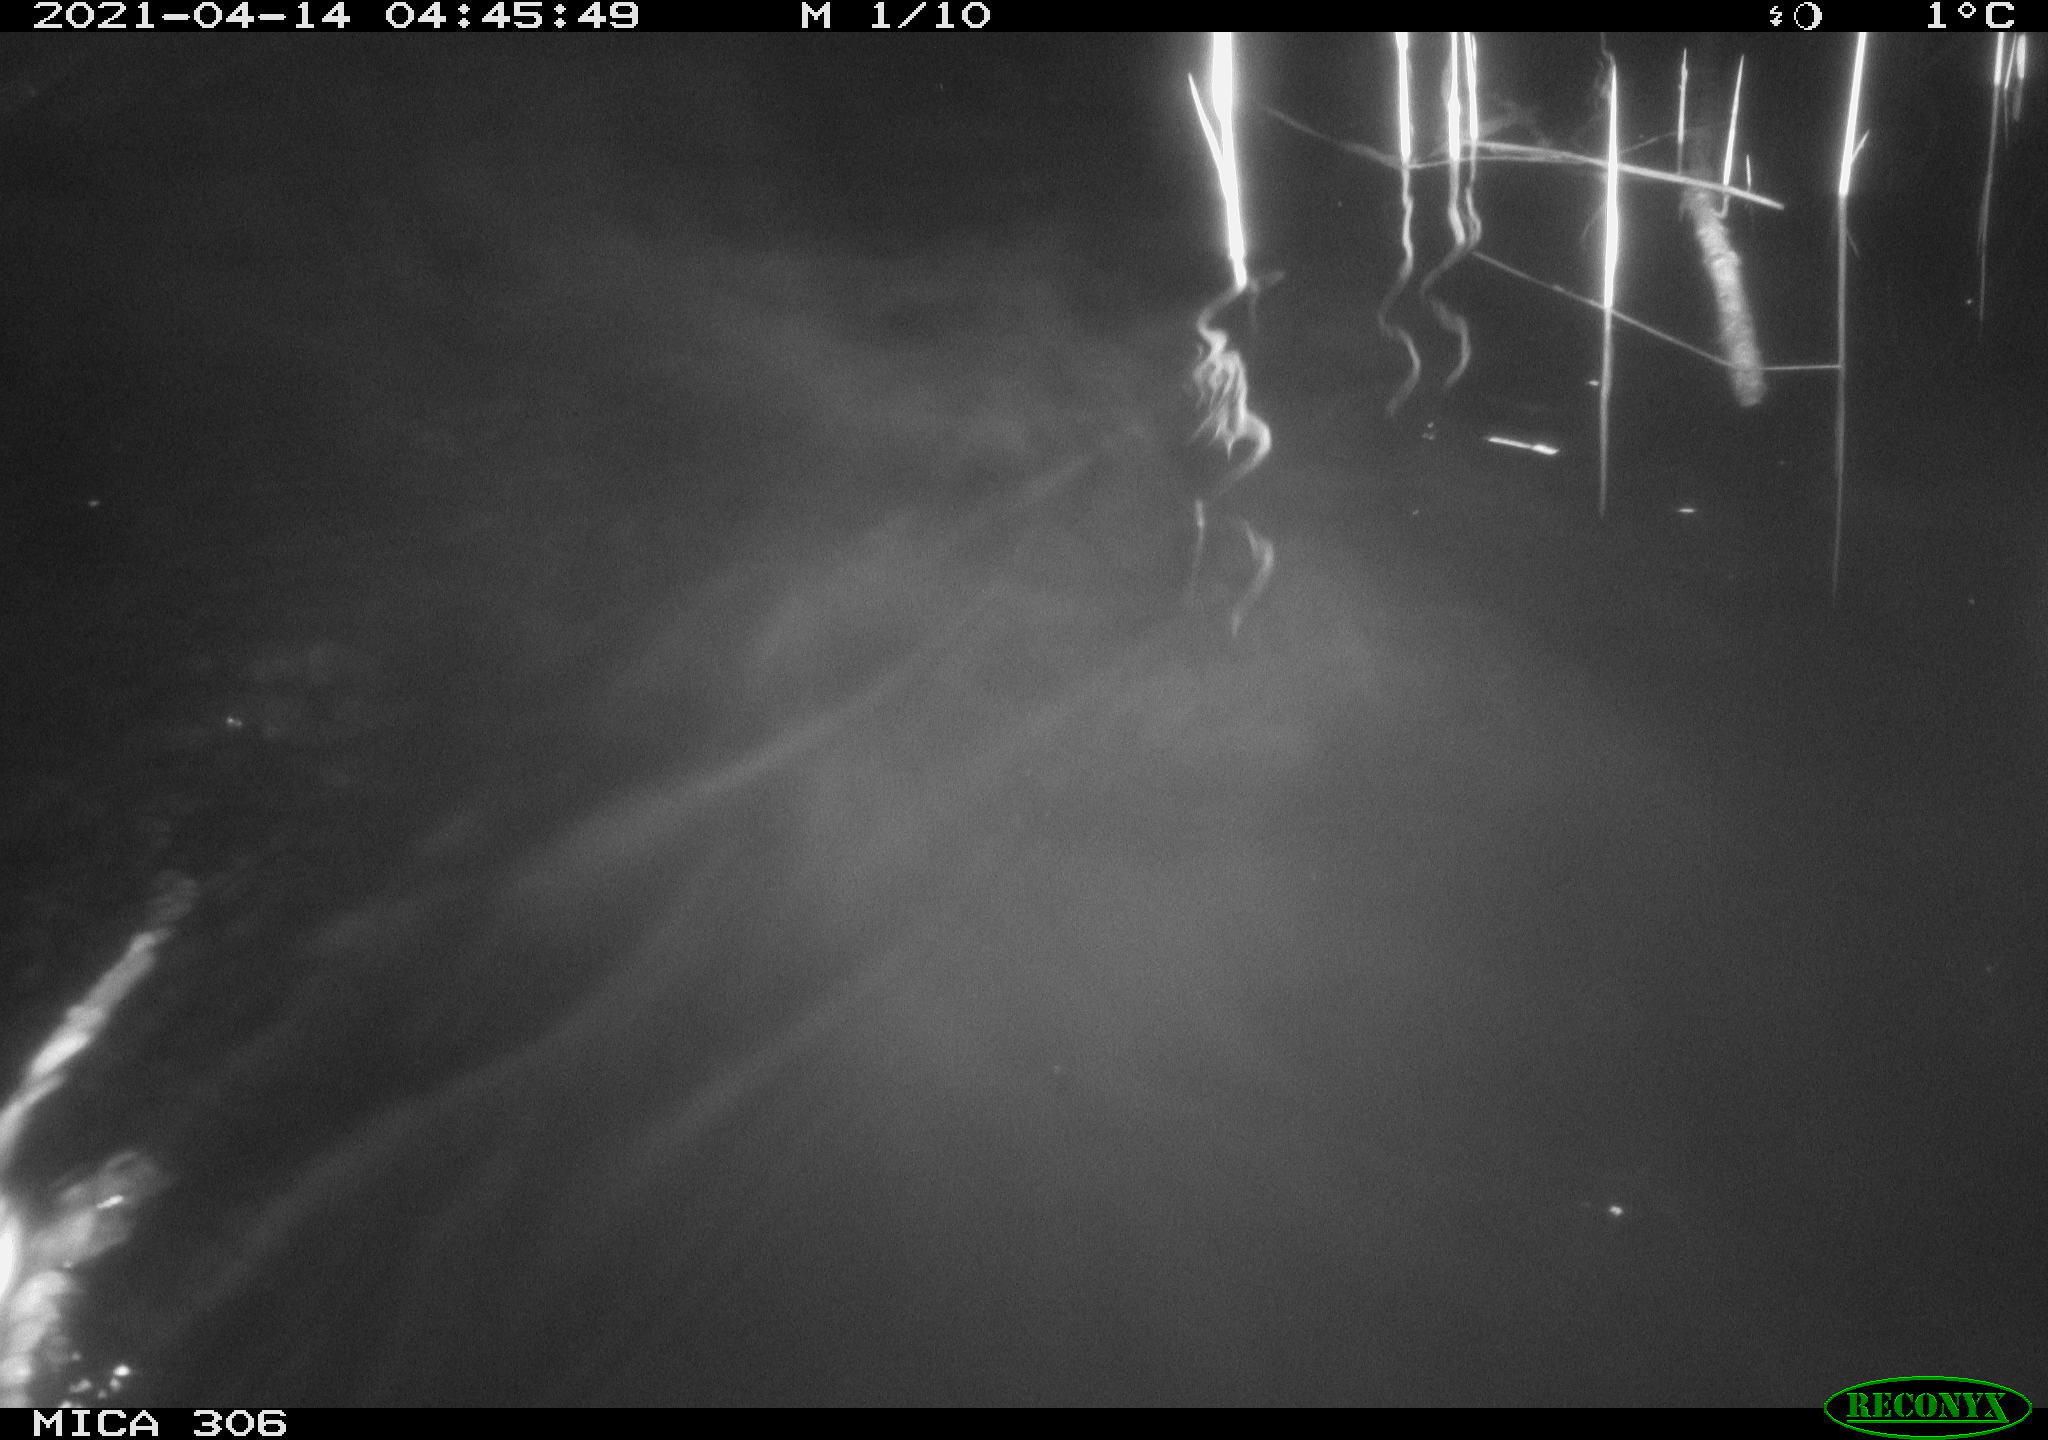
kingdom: Animalia
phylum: Chordata
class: Mammalia
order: Rodentia
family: Muridae
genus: Rattus
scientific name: Rattus norvegicus
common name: Brown rat
